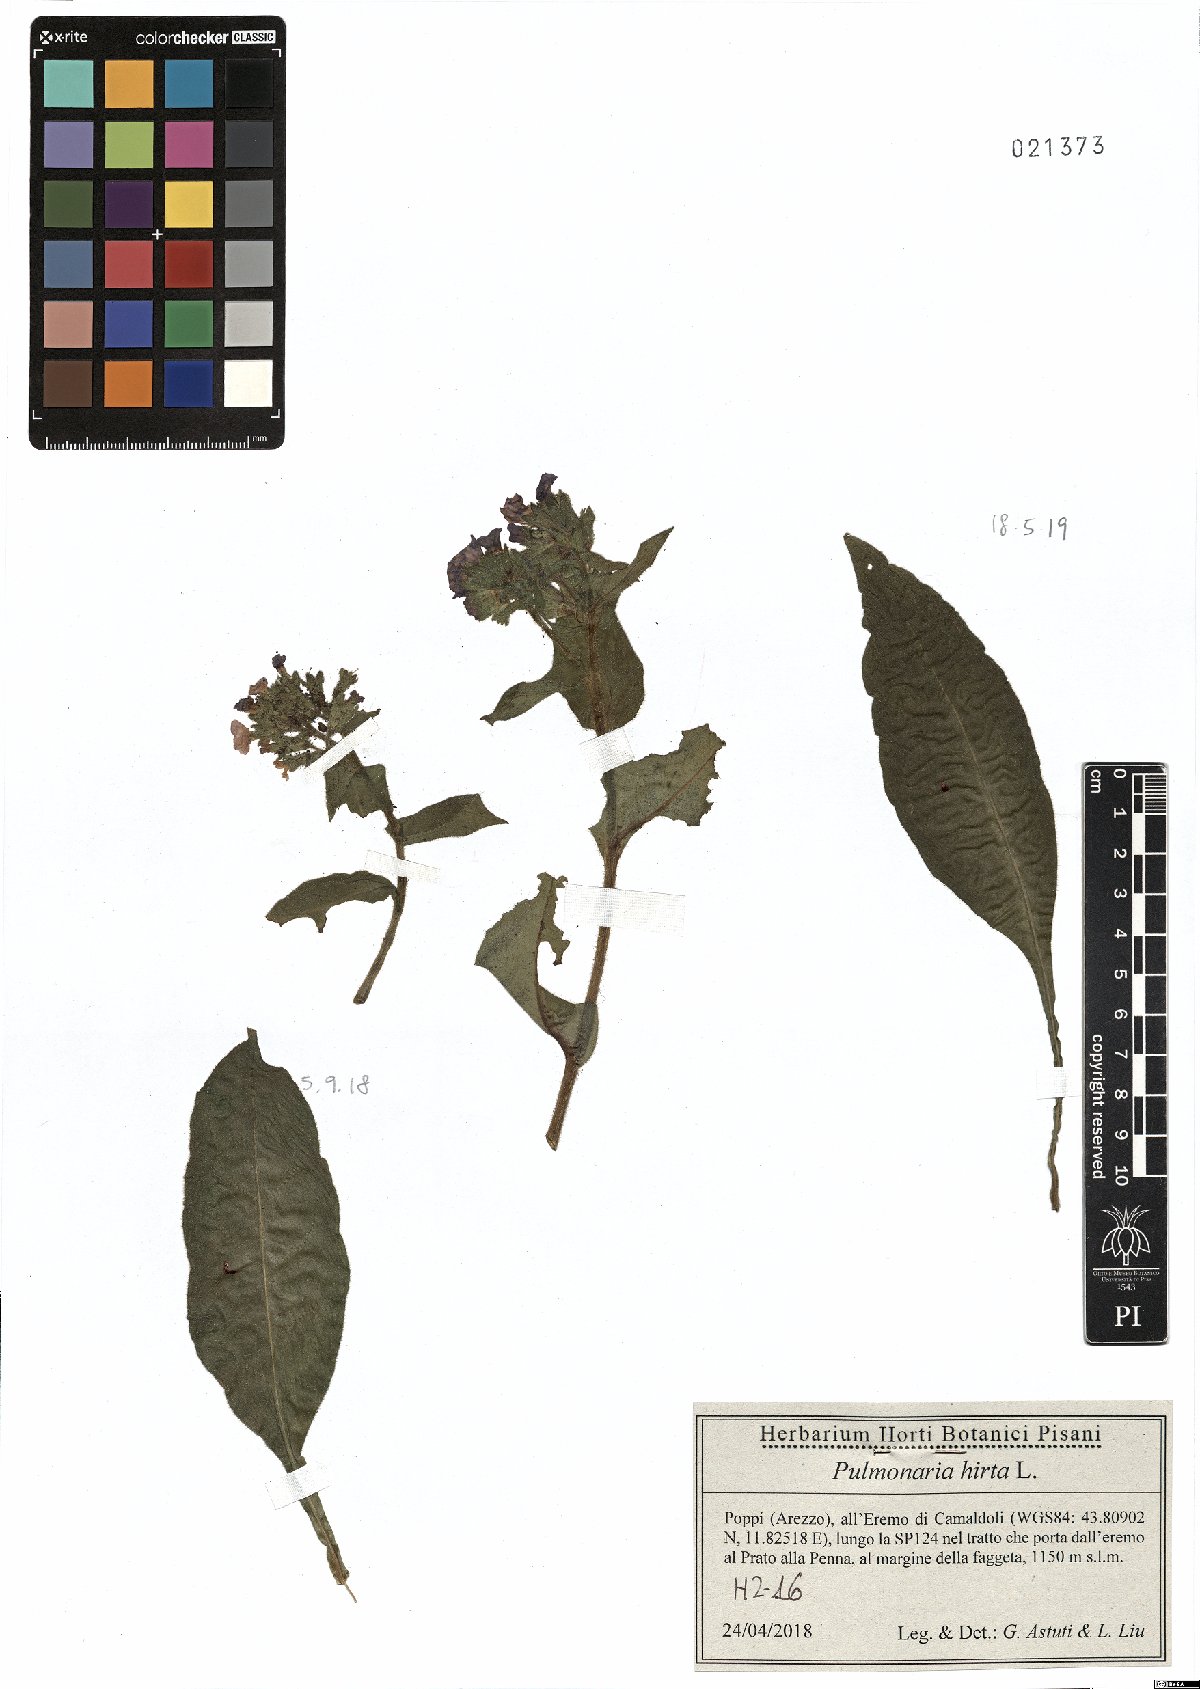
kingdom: Plantae
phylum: Tracheophyta
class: Magnoliopsida
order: Boraginales
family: Boraginaceae
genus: Pulmonaria
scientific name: Pulmonaria hirta
